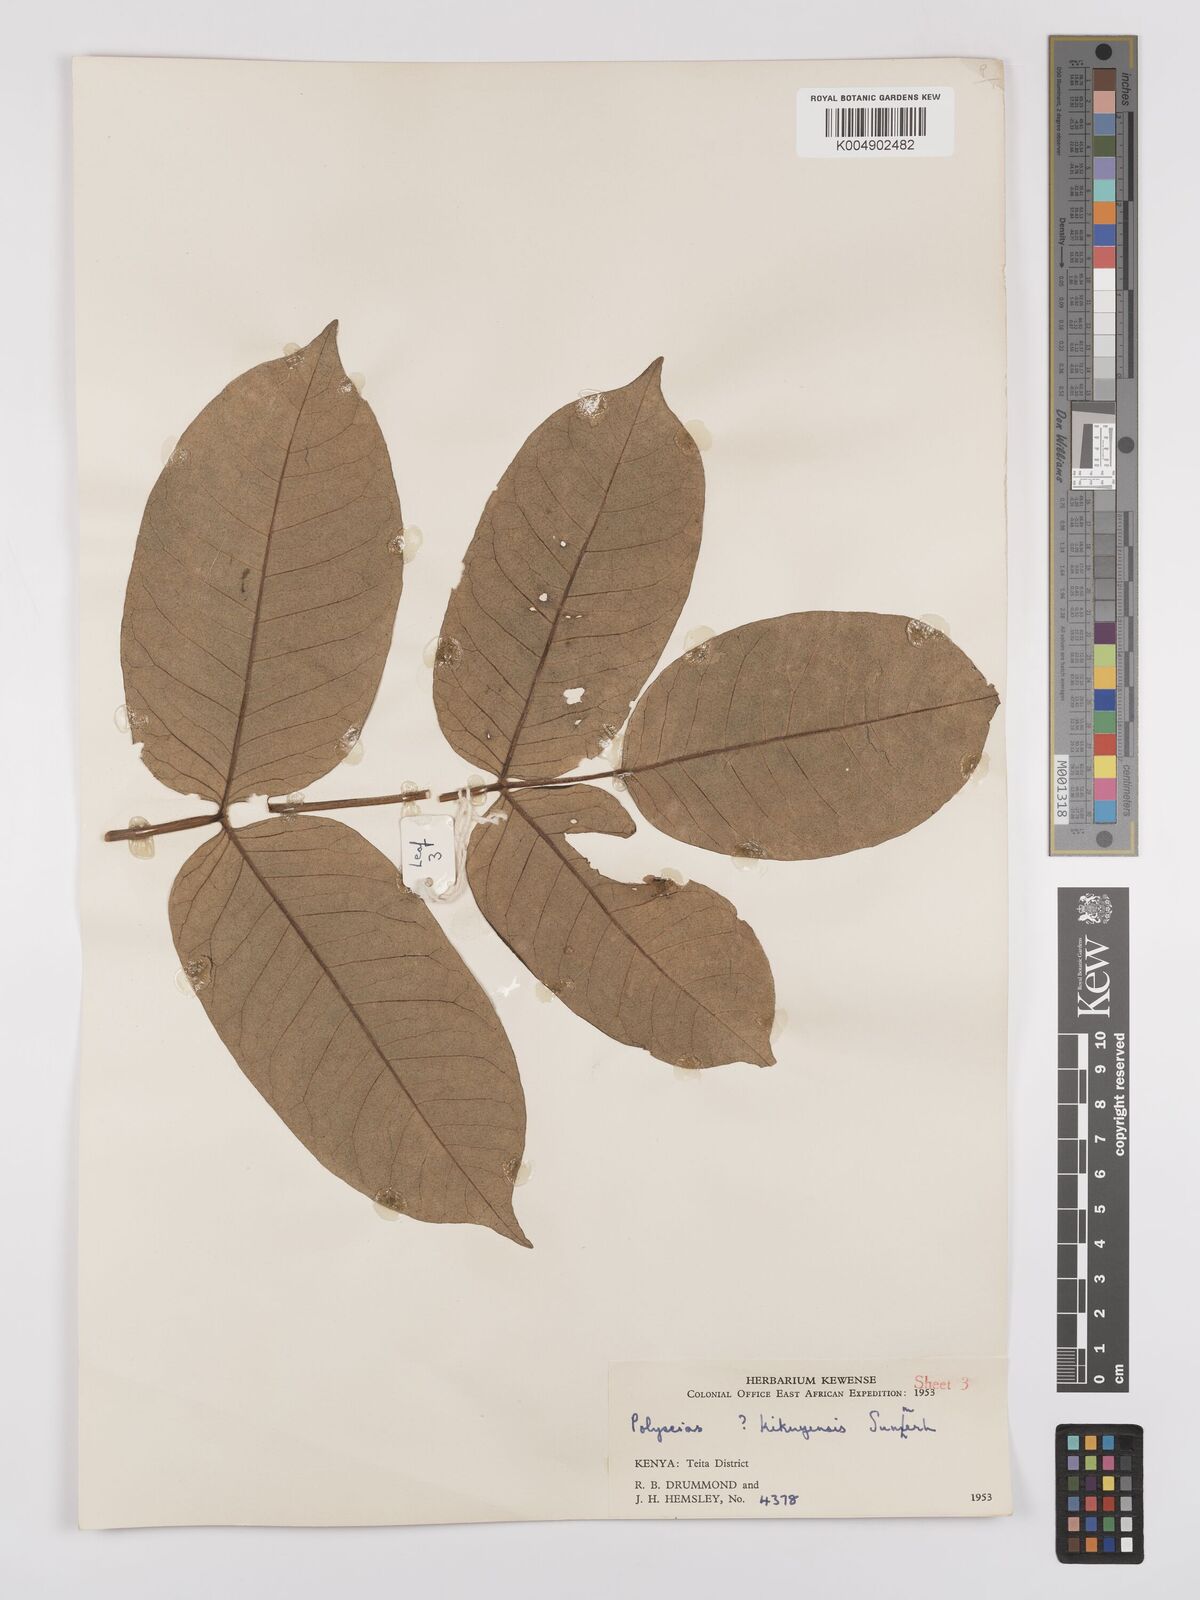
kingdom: Plantae
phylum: Tracheophyta
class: Magnoliopsida
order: Apiales
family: Araliaceae
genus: Polyscias
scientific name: Polyscias fulva
